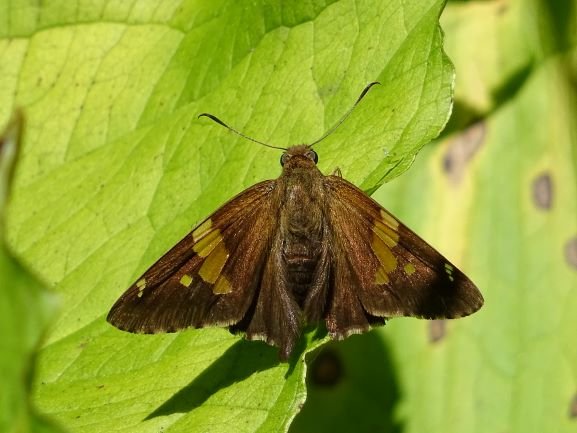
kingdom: Animalia
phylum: Arthropoda
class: Insecta
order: Lepidoptera
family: Hesperiidae
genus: Epargyreus
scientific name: Epargyreus clarus
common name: Silver-spotted Skipper
